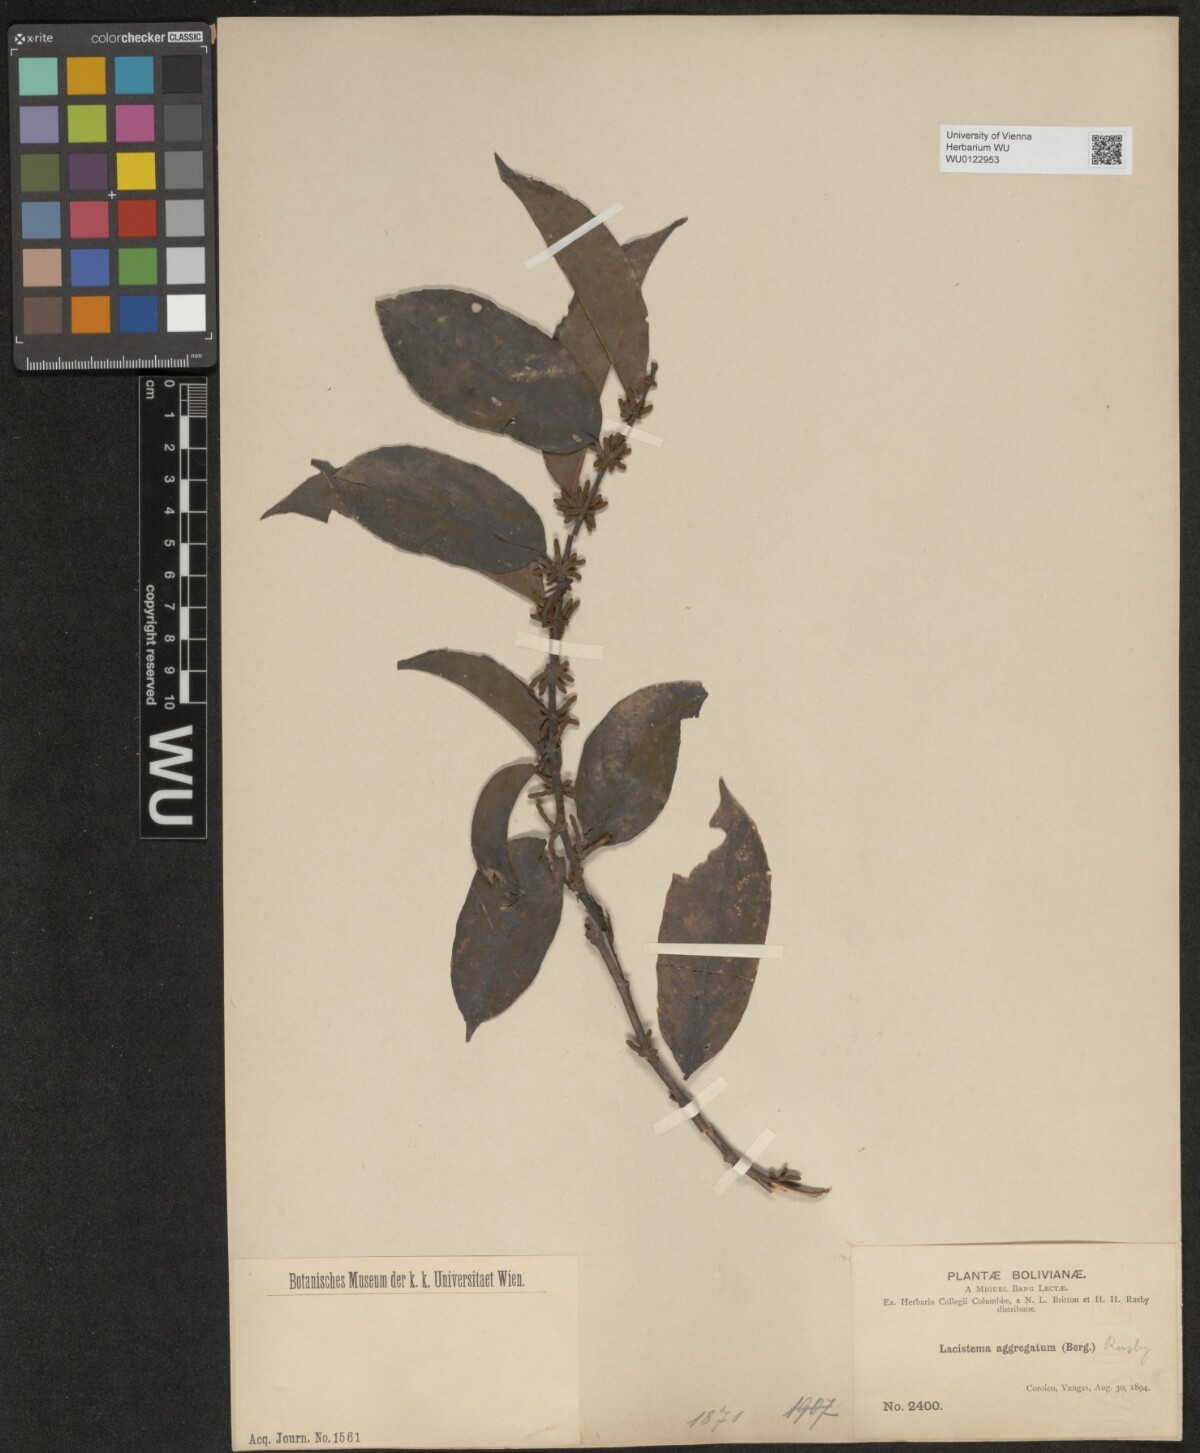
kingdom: Plantae
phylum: Tracheophyta
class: Magnoliopsida
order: Malpighiales
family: Lacistemataceae
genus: Lacistema
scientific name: Lacistema aggregatum
